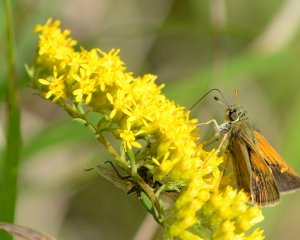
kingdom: Animalia
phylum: Arthropoda
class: Insecta
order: Lepidoptera
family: Hesperiidae
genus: Polites
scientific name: Polites themistocles
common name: Tawny-edged Skipper
